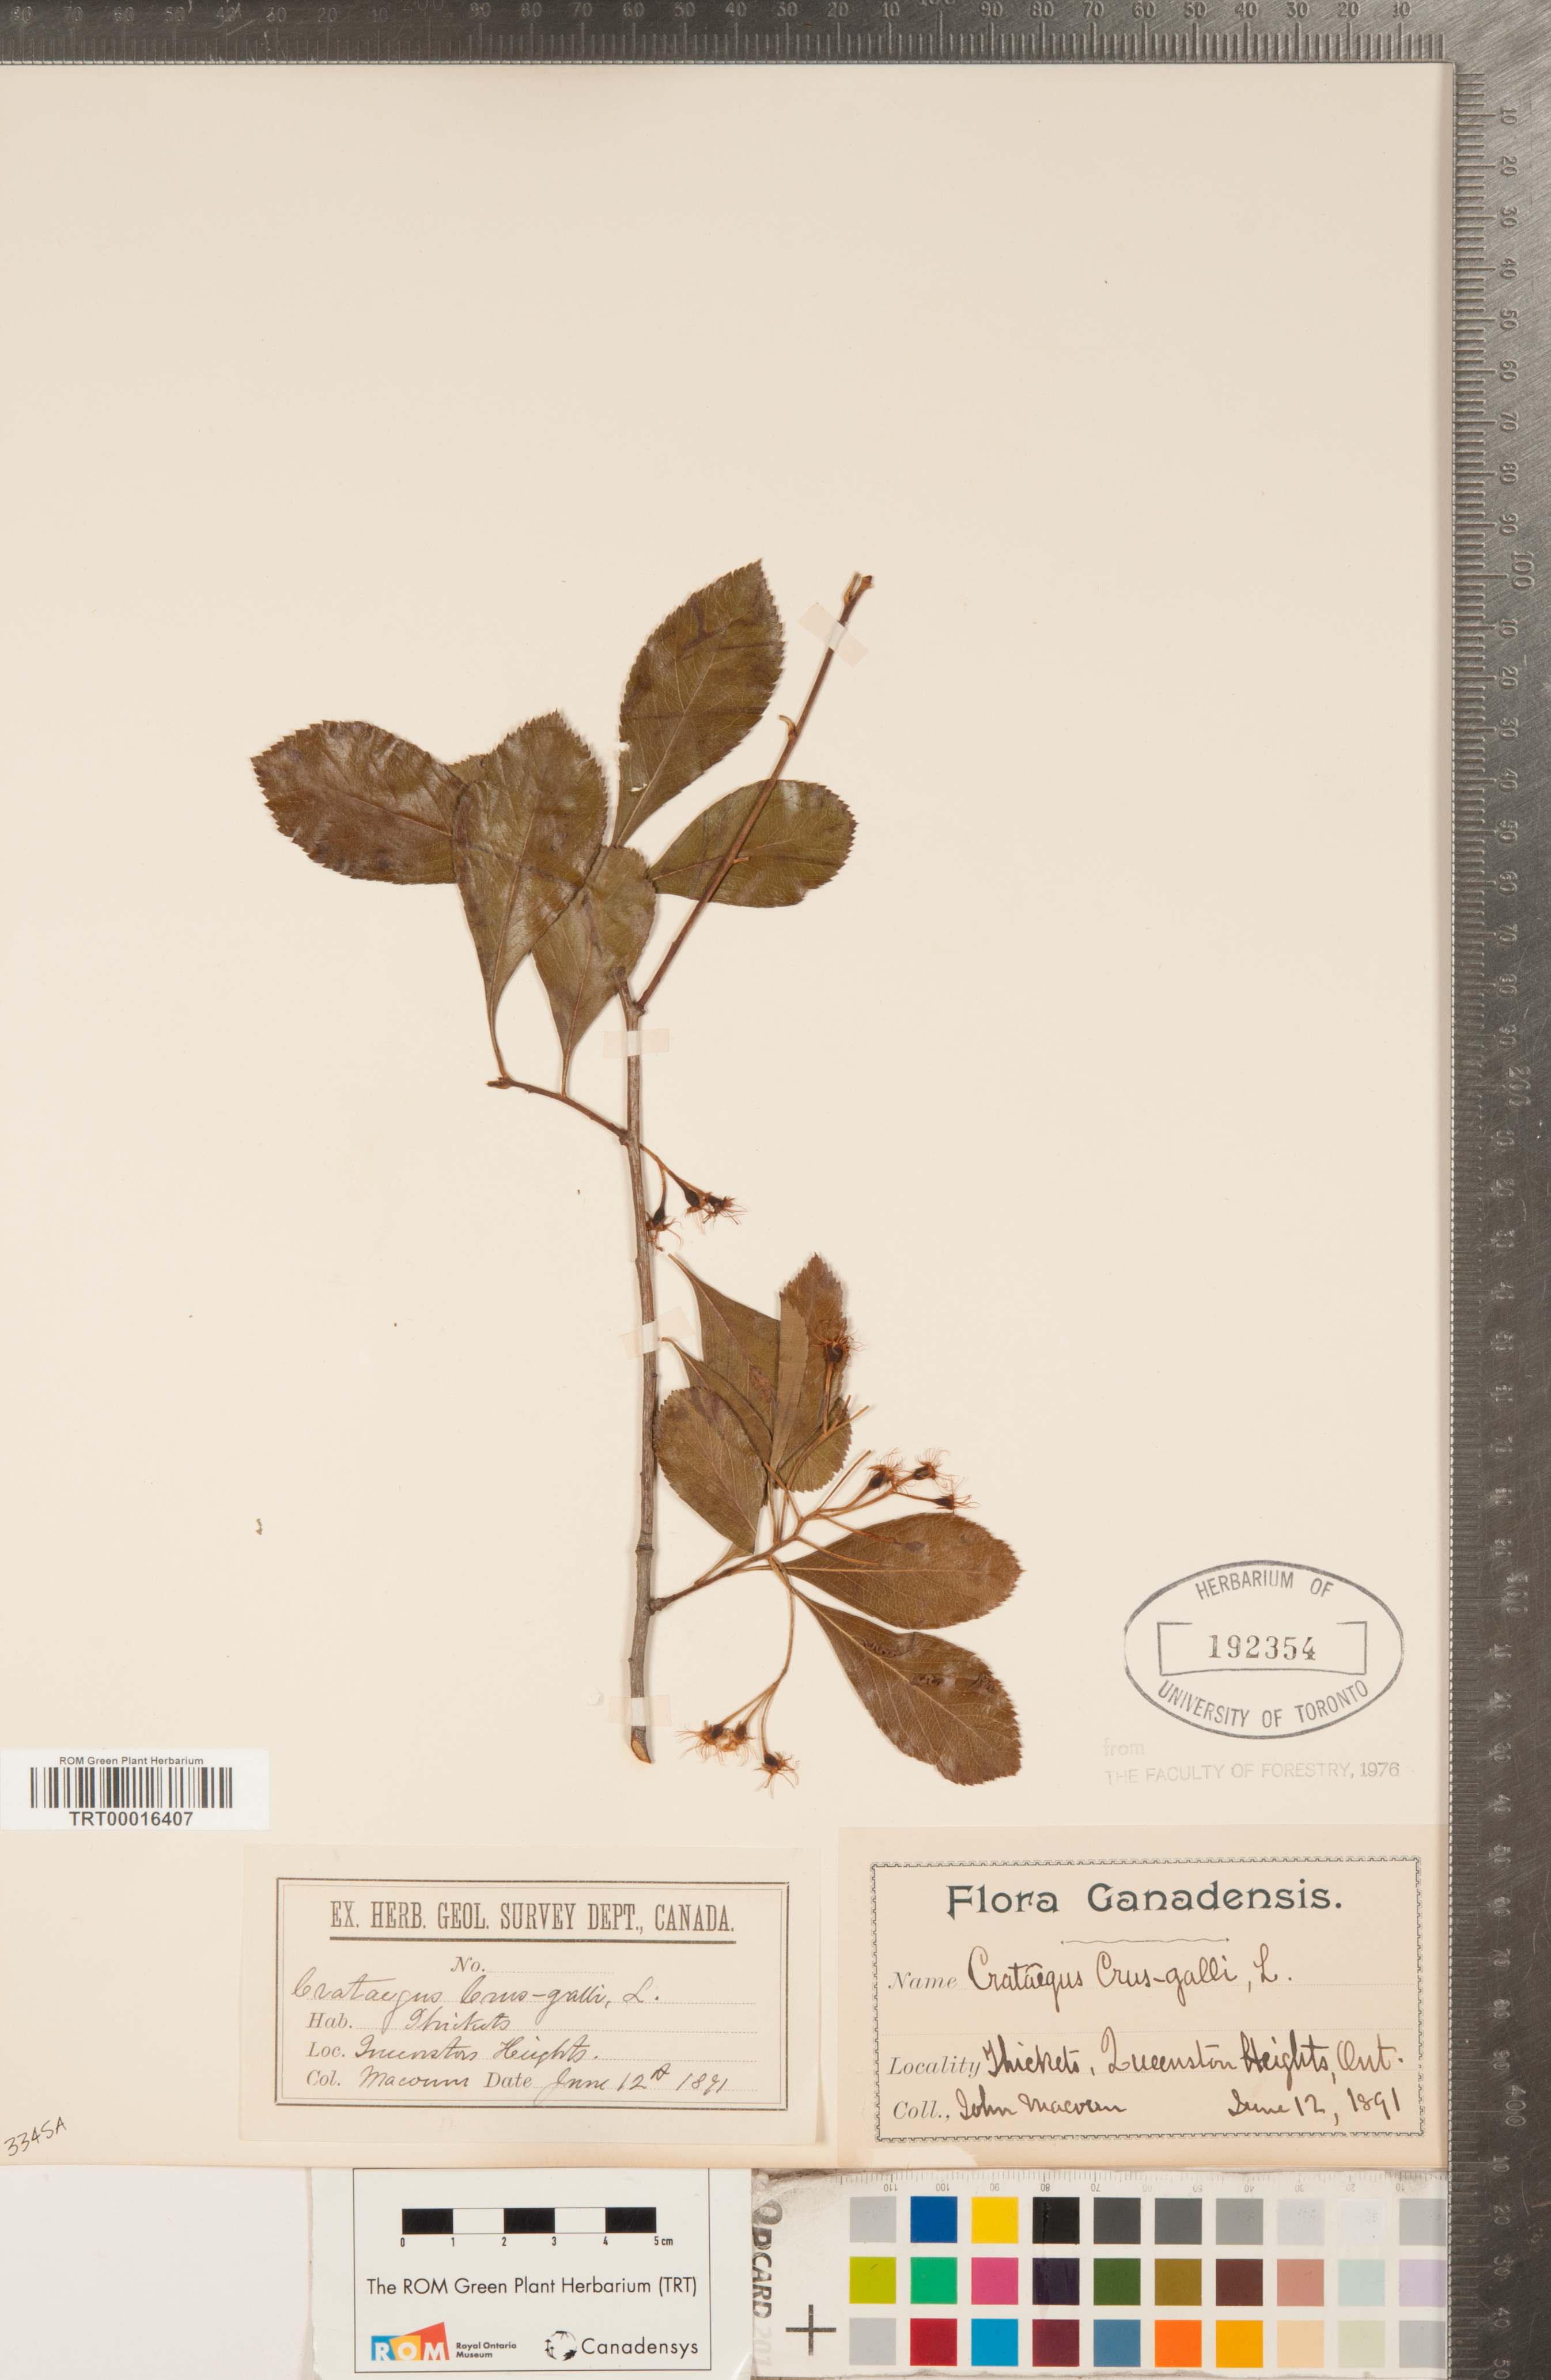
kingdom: Plantae
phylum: Tracheophyta
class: Magnoliopsida
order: Rosales
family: Rosaceae
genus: Crataegus
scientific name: Crataegus crus-galli
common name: Cockspurthorn
